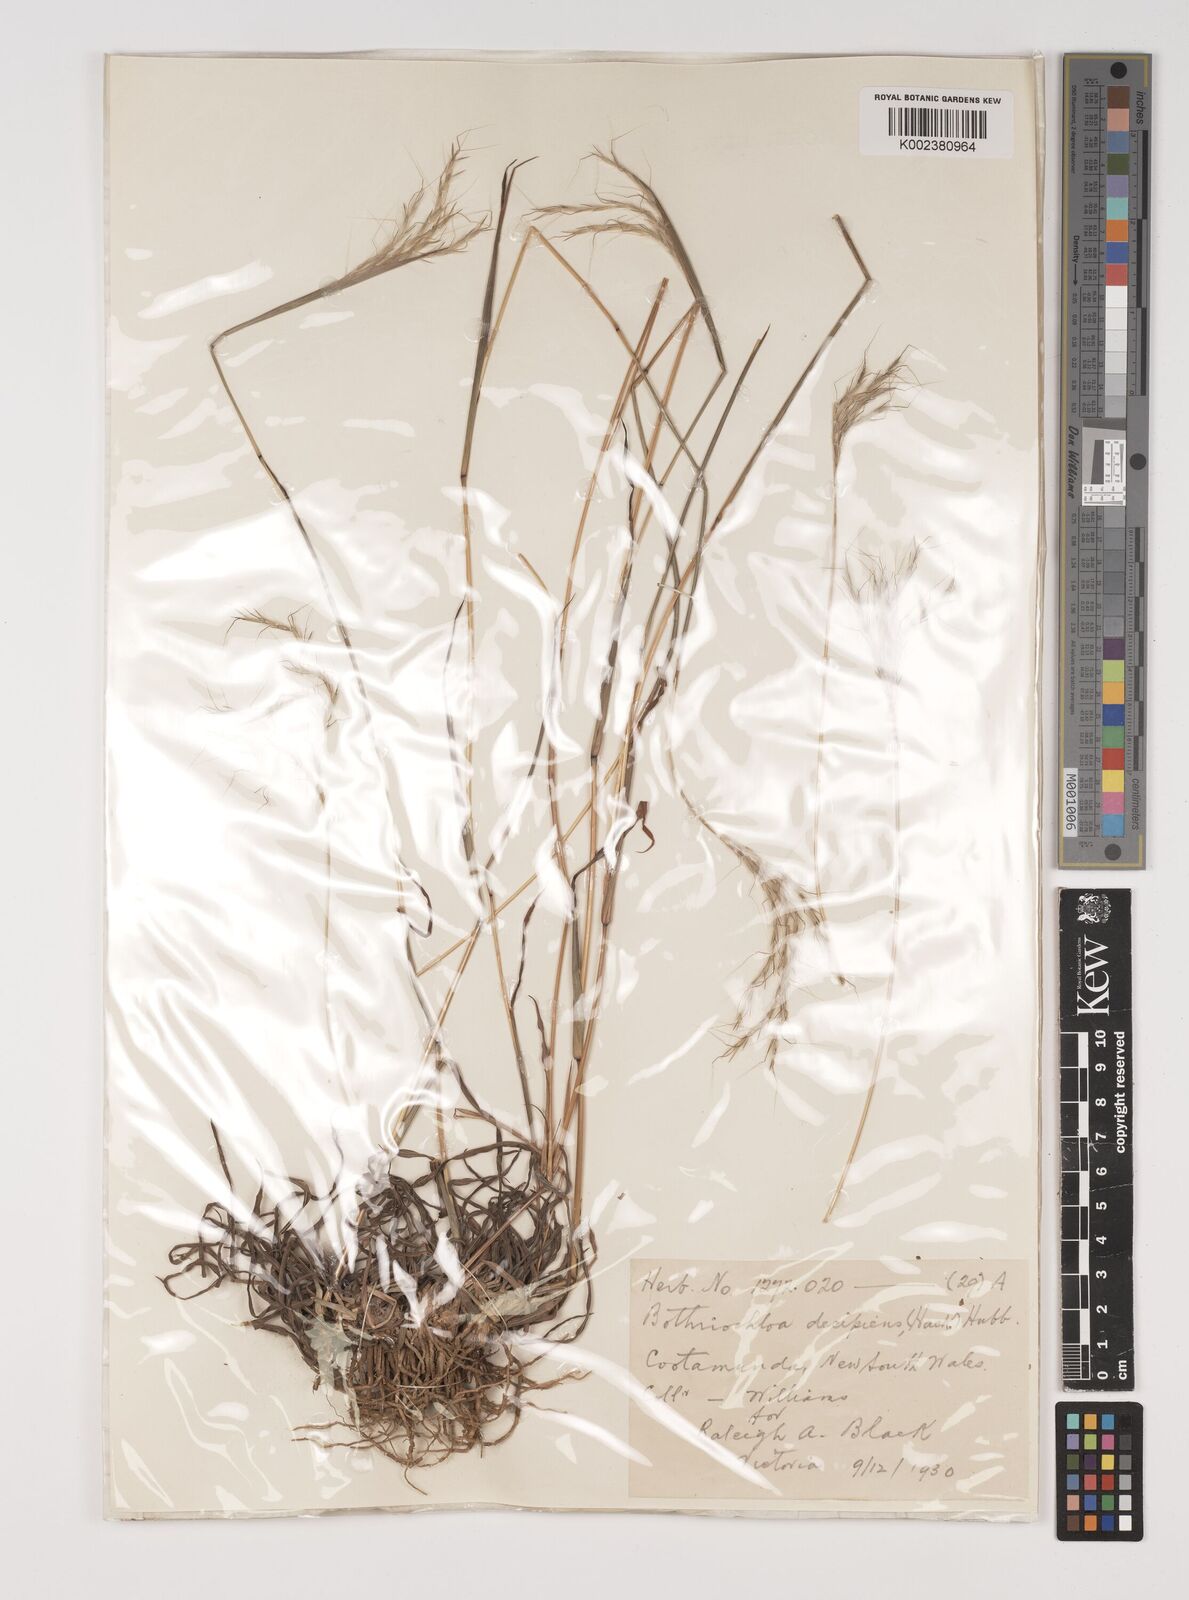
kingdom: Plantae
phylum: Tracheophyta
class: Liliopsida
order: Poales
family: Poaceae
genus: Bothriochloa
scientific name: Bothriochloa decipiens
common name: Pitted-bluegrass
